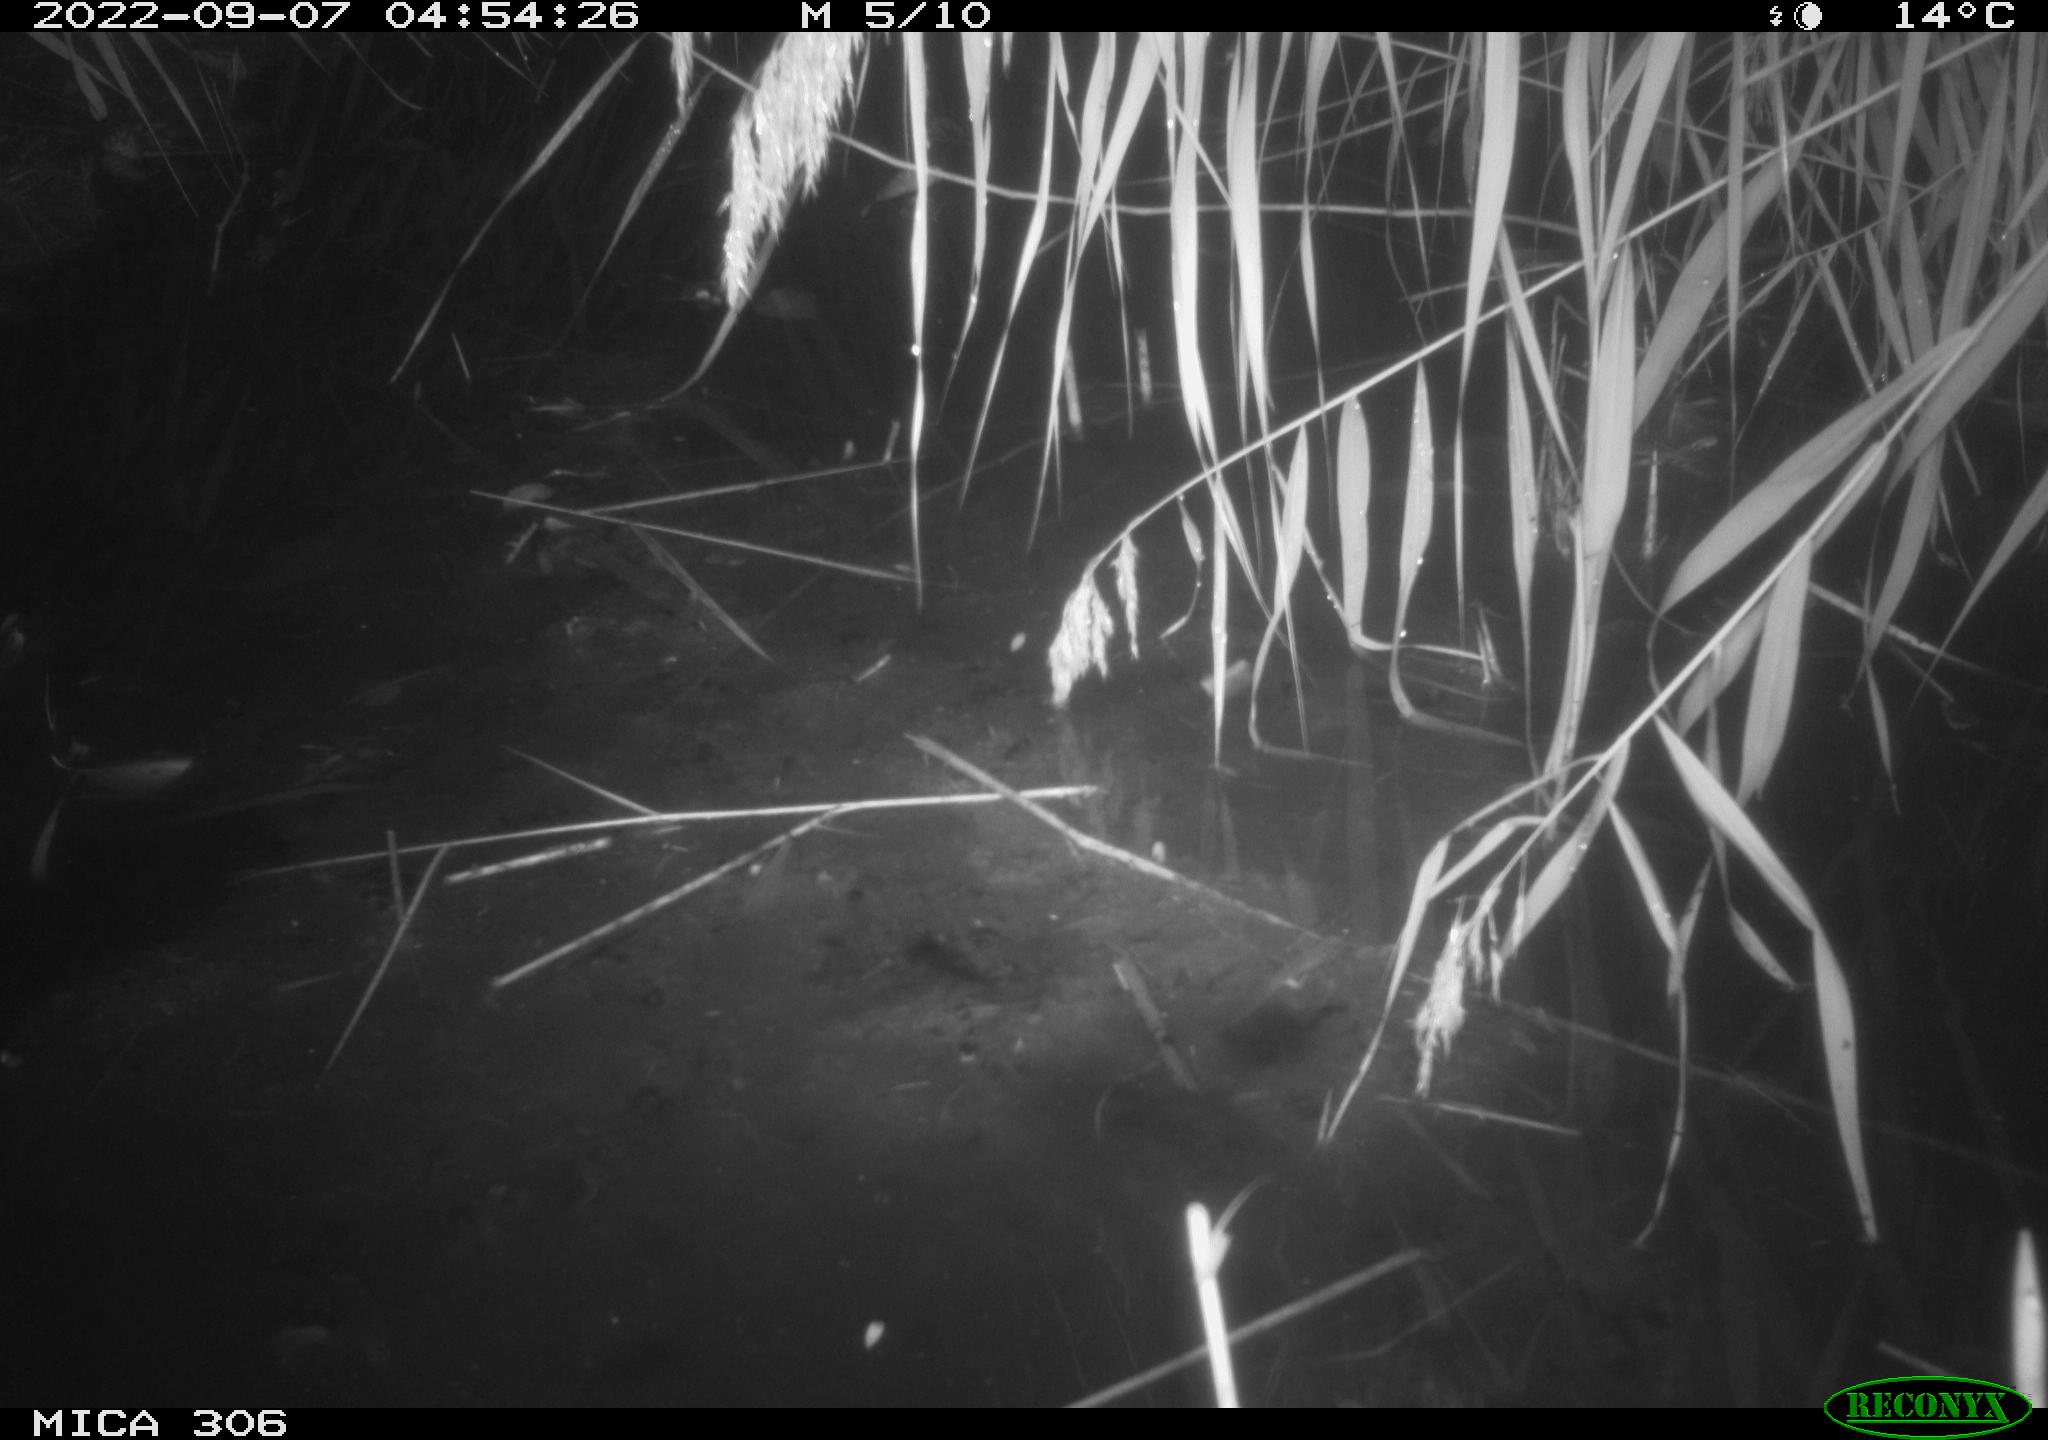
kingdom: Animalia
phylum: Chordata
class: Mammalia
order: Rodentia
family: Muridae
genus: Rattus
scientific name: Rattus norvegicus
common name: Brown rat
